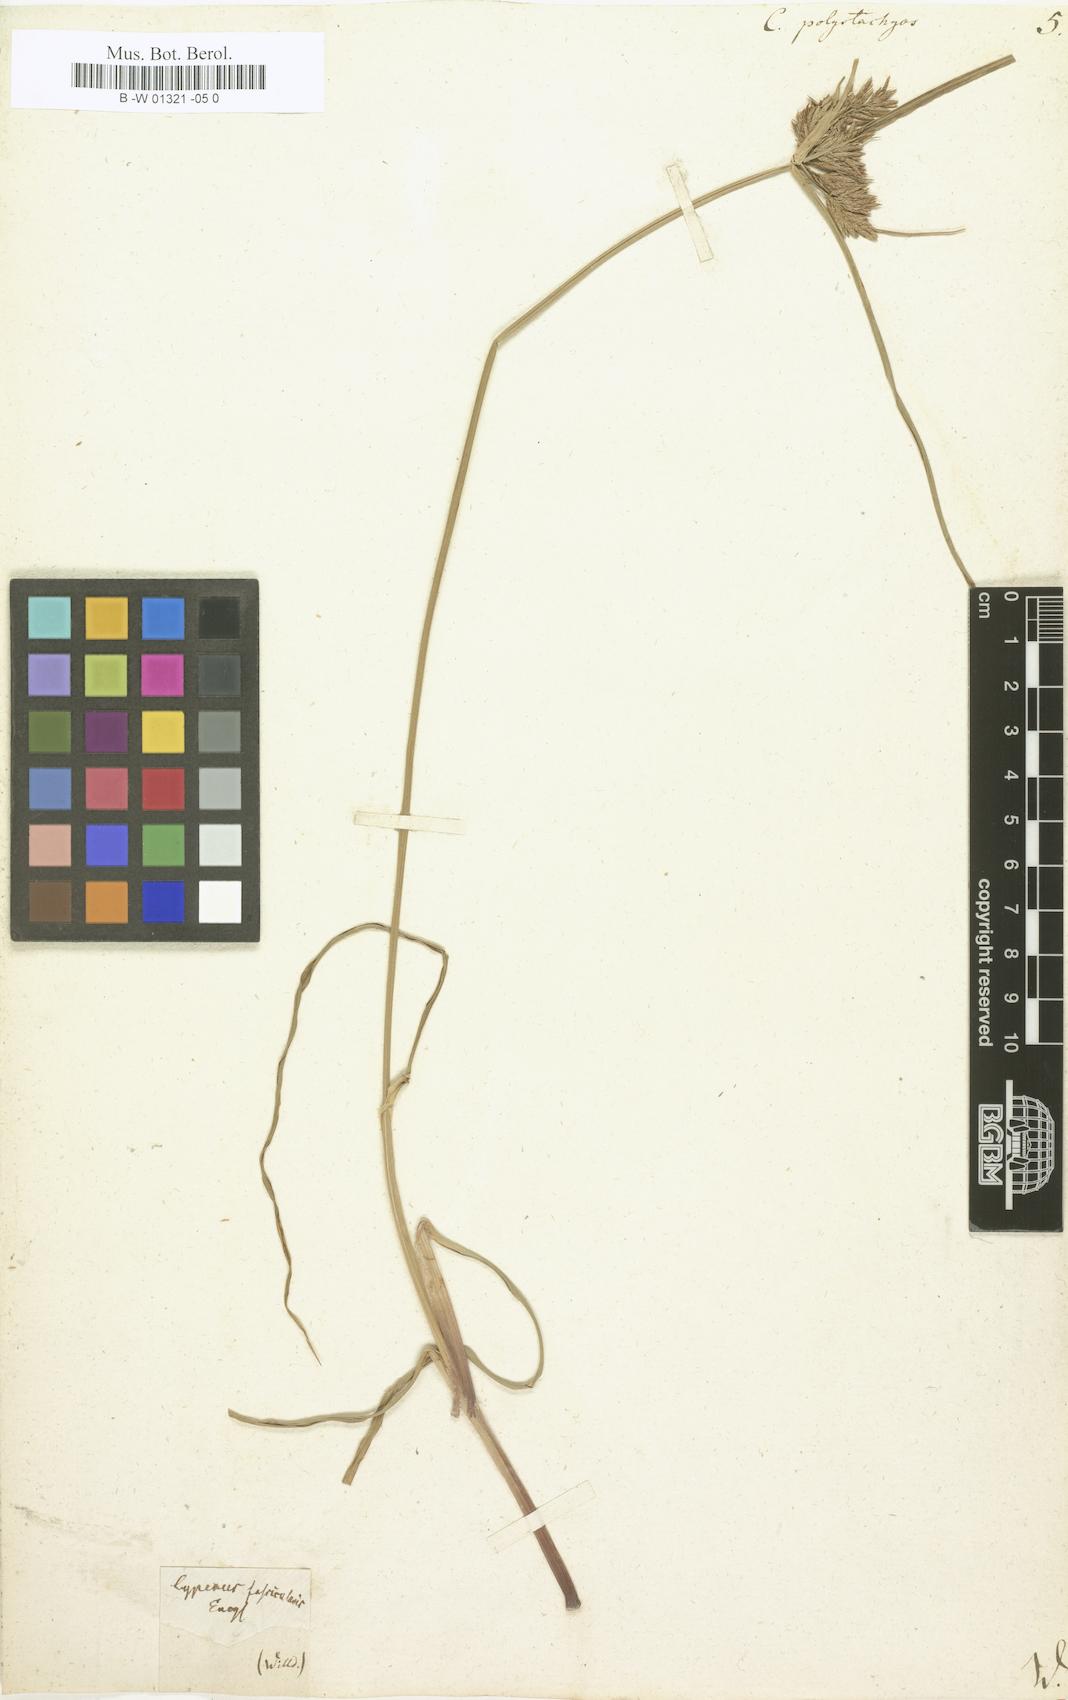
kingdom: Plantae
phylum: Tracheophyta
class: Liliopsida
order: Poales
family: Cyperaceae
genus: Cyperus
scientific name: Cyperus polystachyos
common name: Bunchy flat sedge
